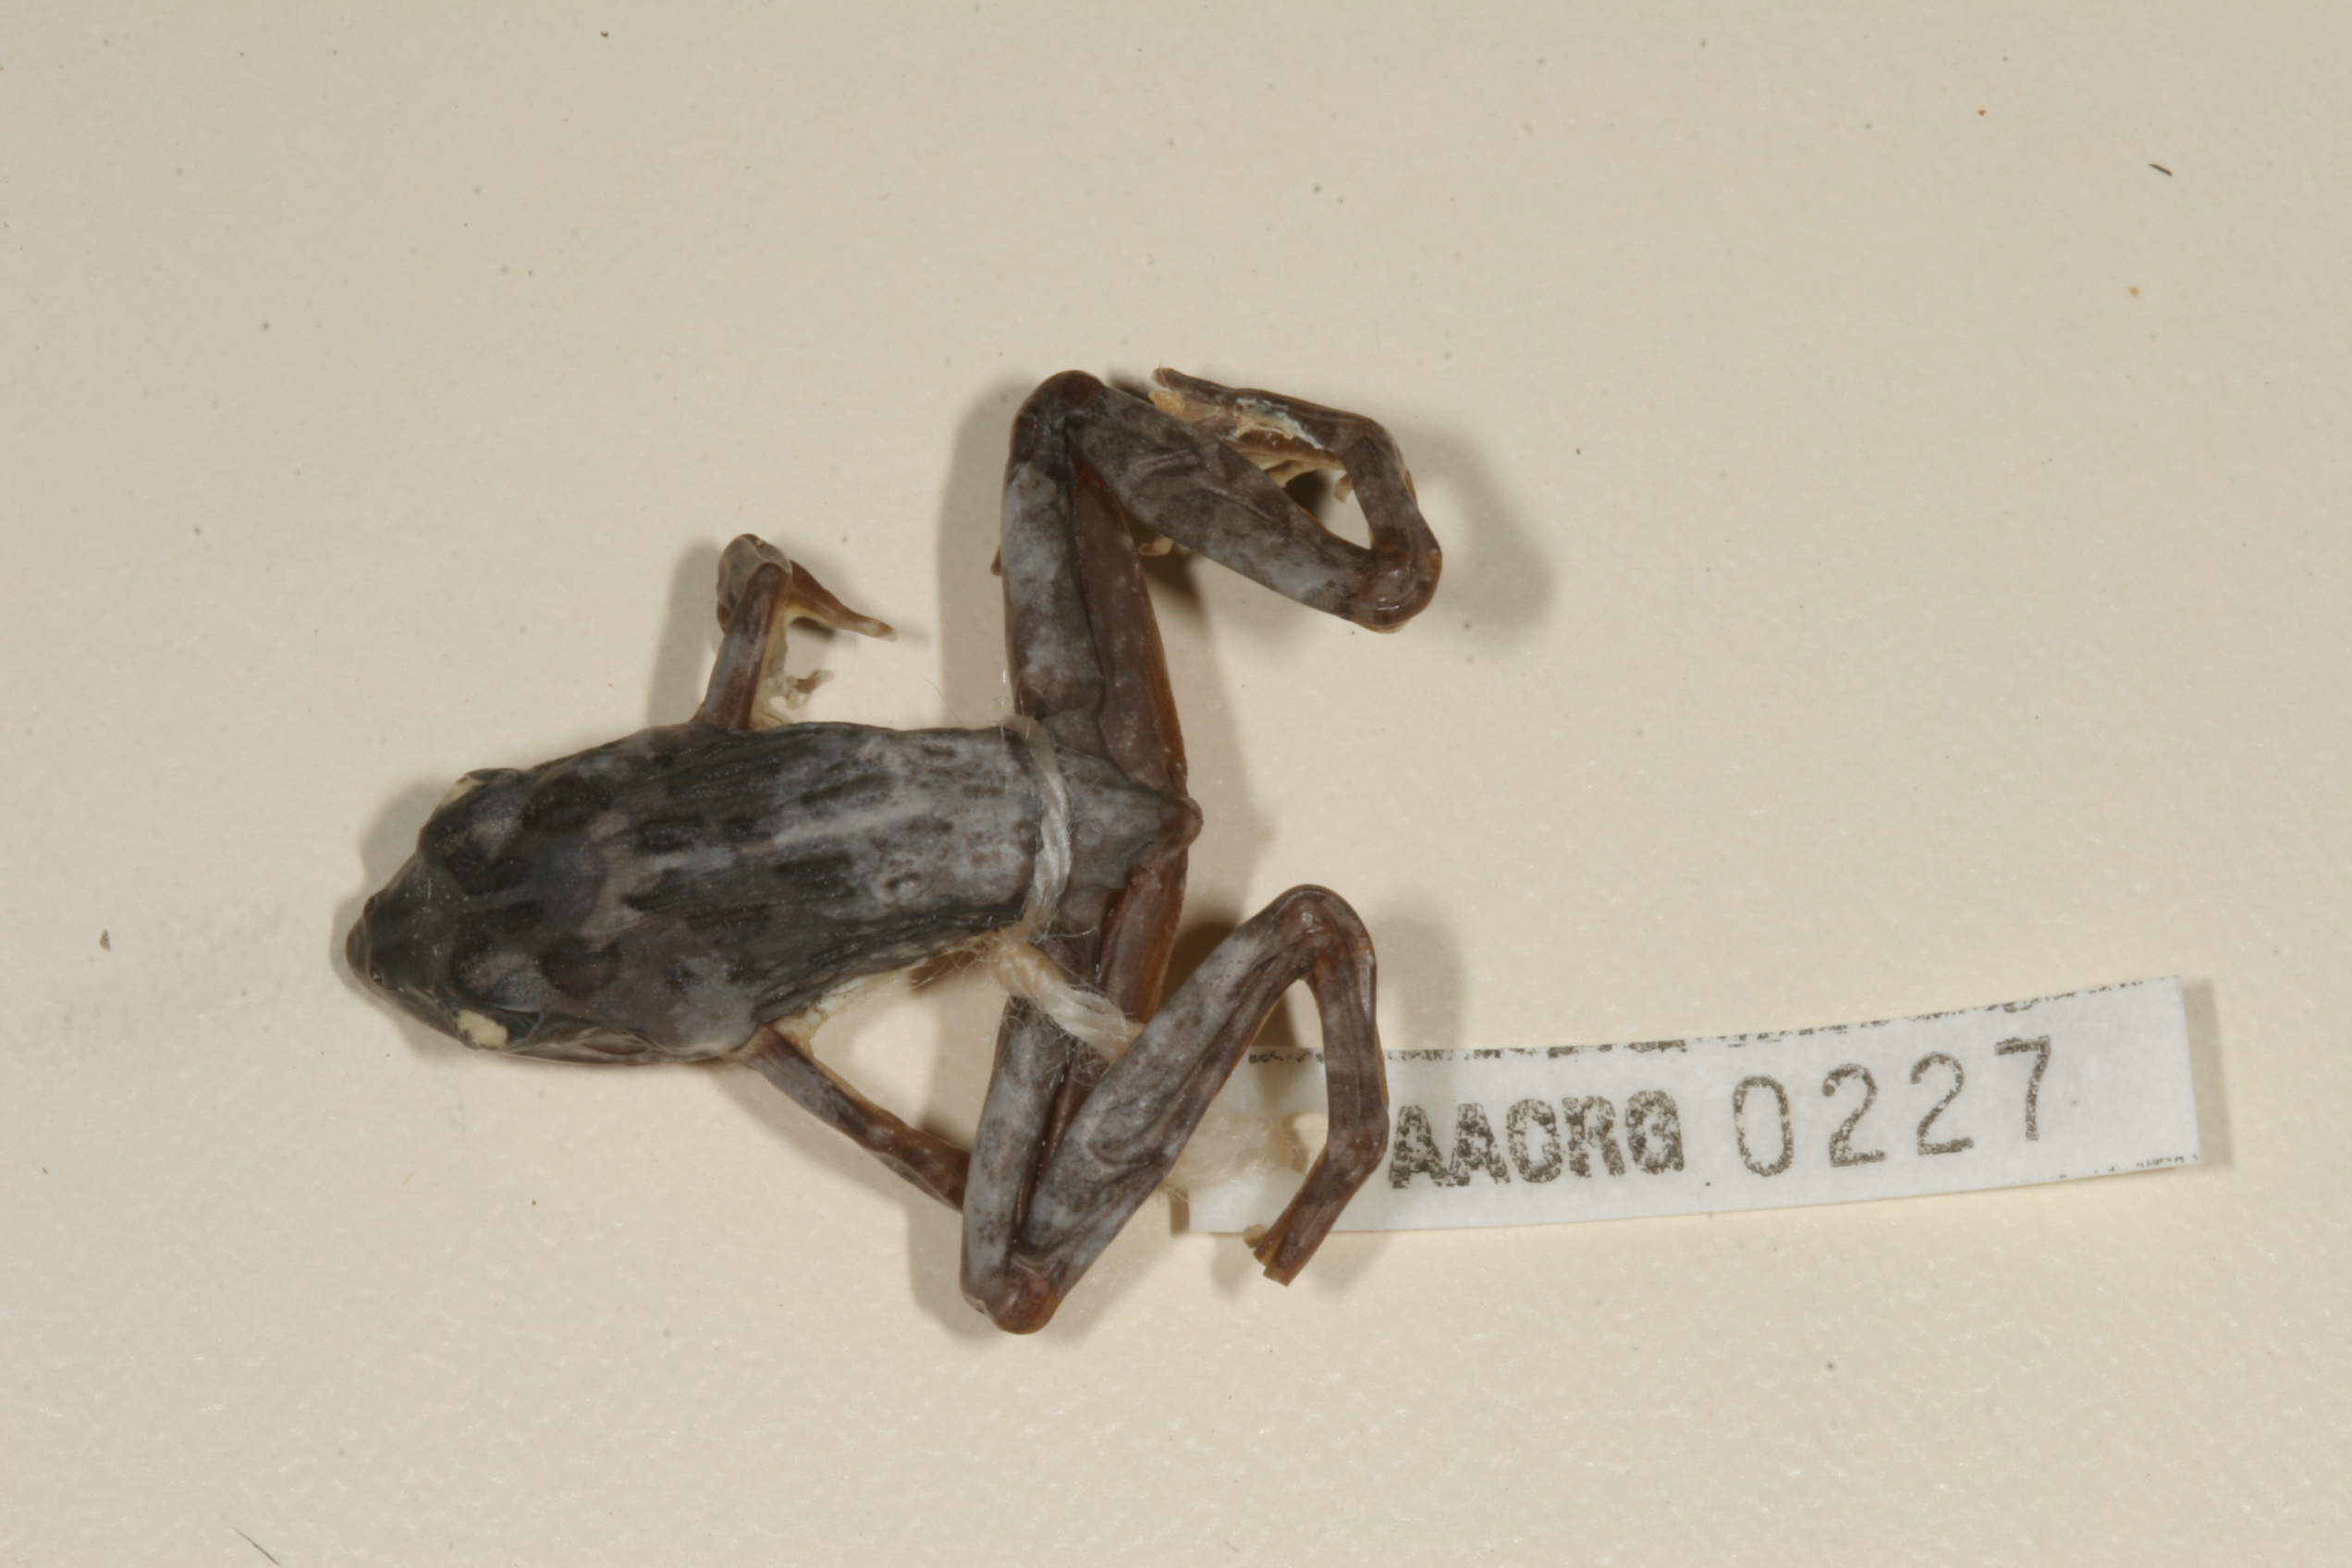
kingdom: Animalia
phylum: Chordata
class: Amphibia
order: Anura
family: Pyxicephalidae
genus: Amietia
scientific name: Amietia angolensis
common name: Dusky-throated frog
